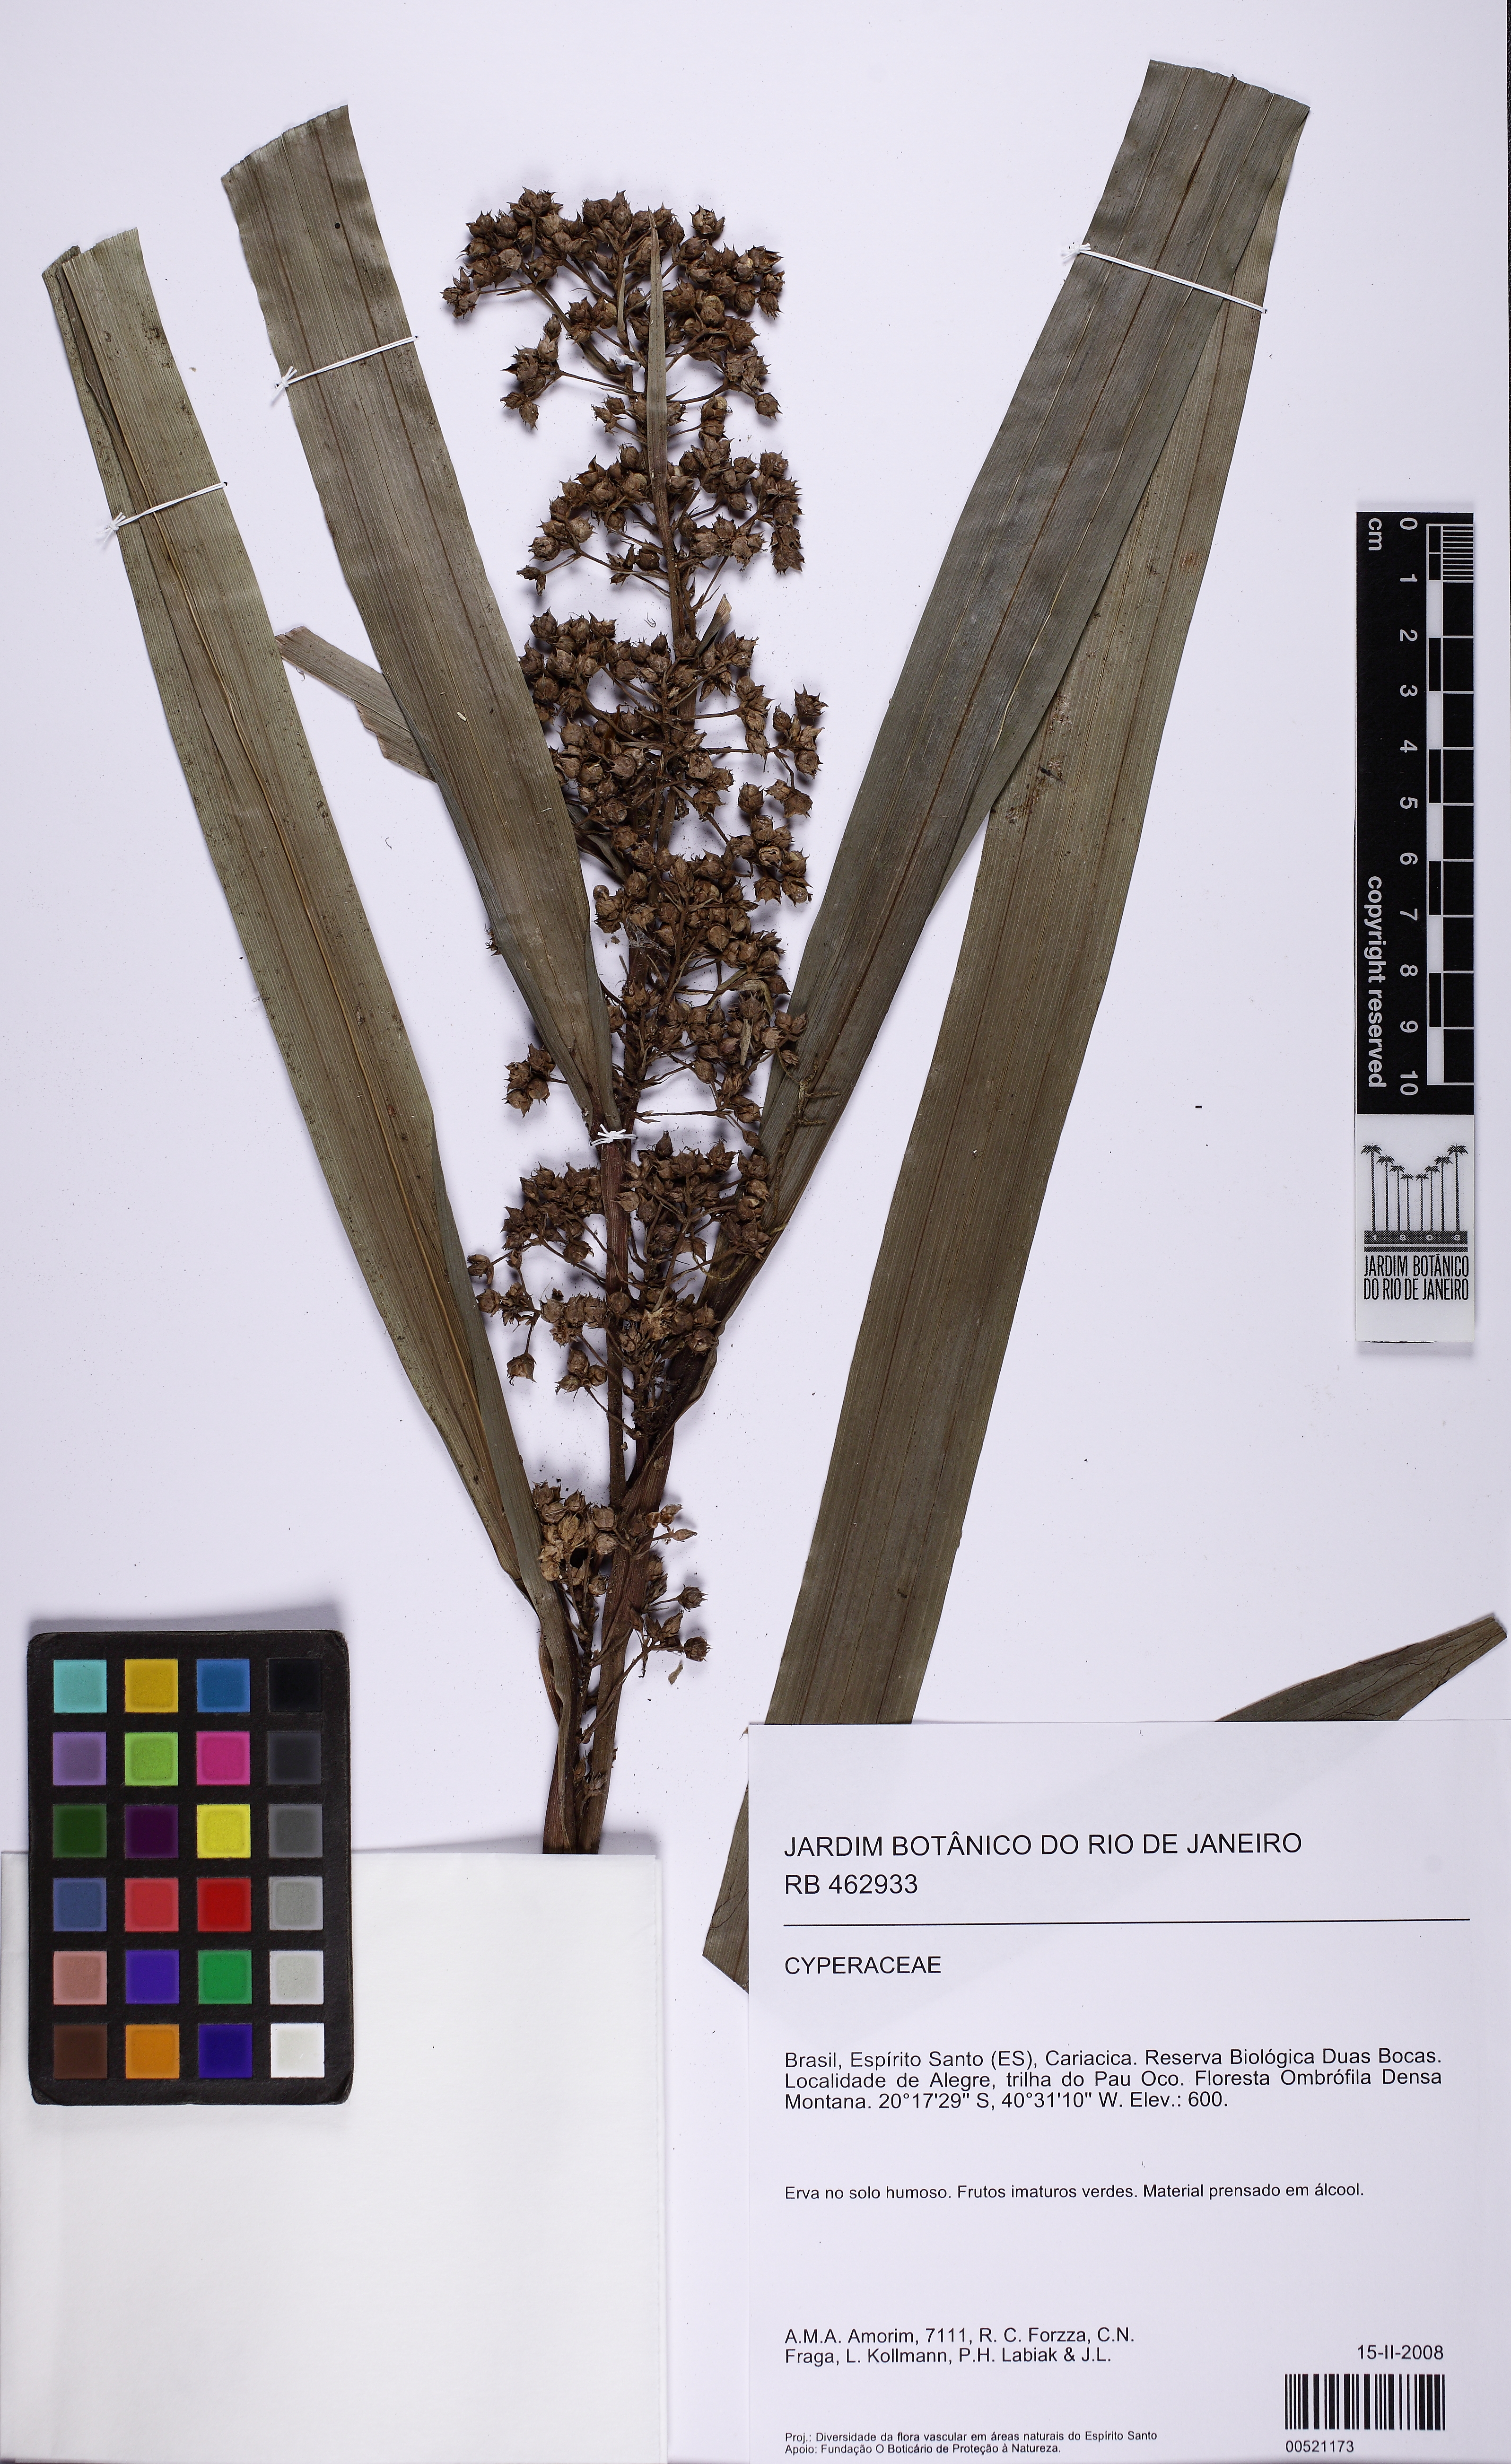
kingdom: Plantae
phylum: Tracheophyta
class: Liliopsida
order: Poales
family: Cyperaceae
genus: Becquerelia
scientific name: Becquerelia cymosa
